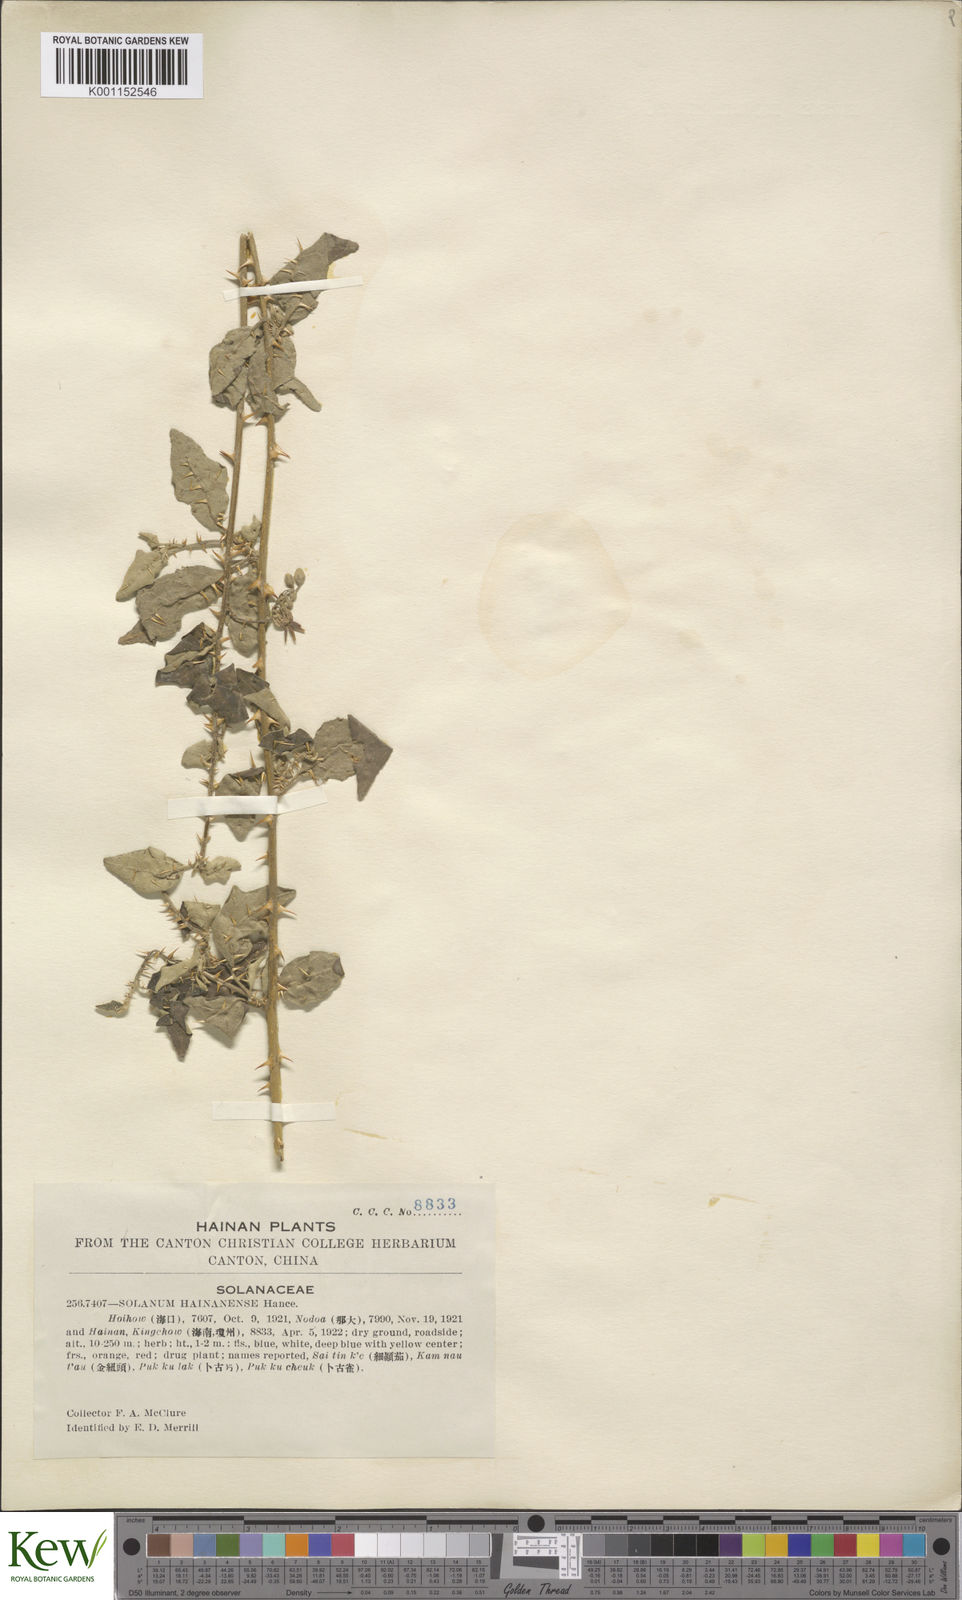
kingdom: Plantae
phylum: Tracheophyta
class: Magnoliopsida
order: Solanales
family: Solanaceae
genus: Solanum
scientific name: Solanum procumbens
